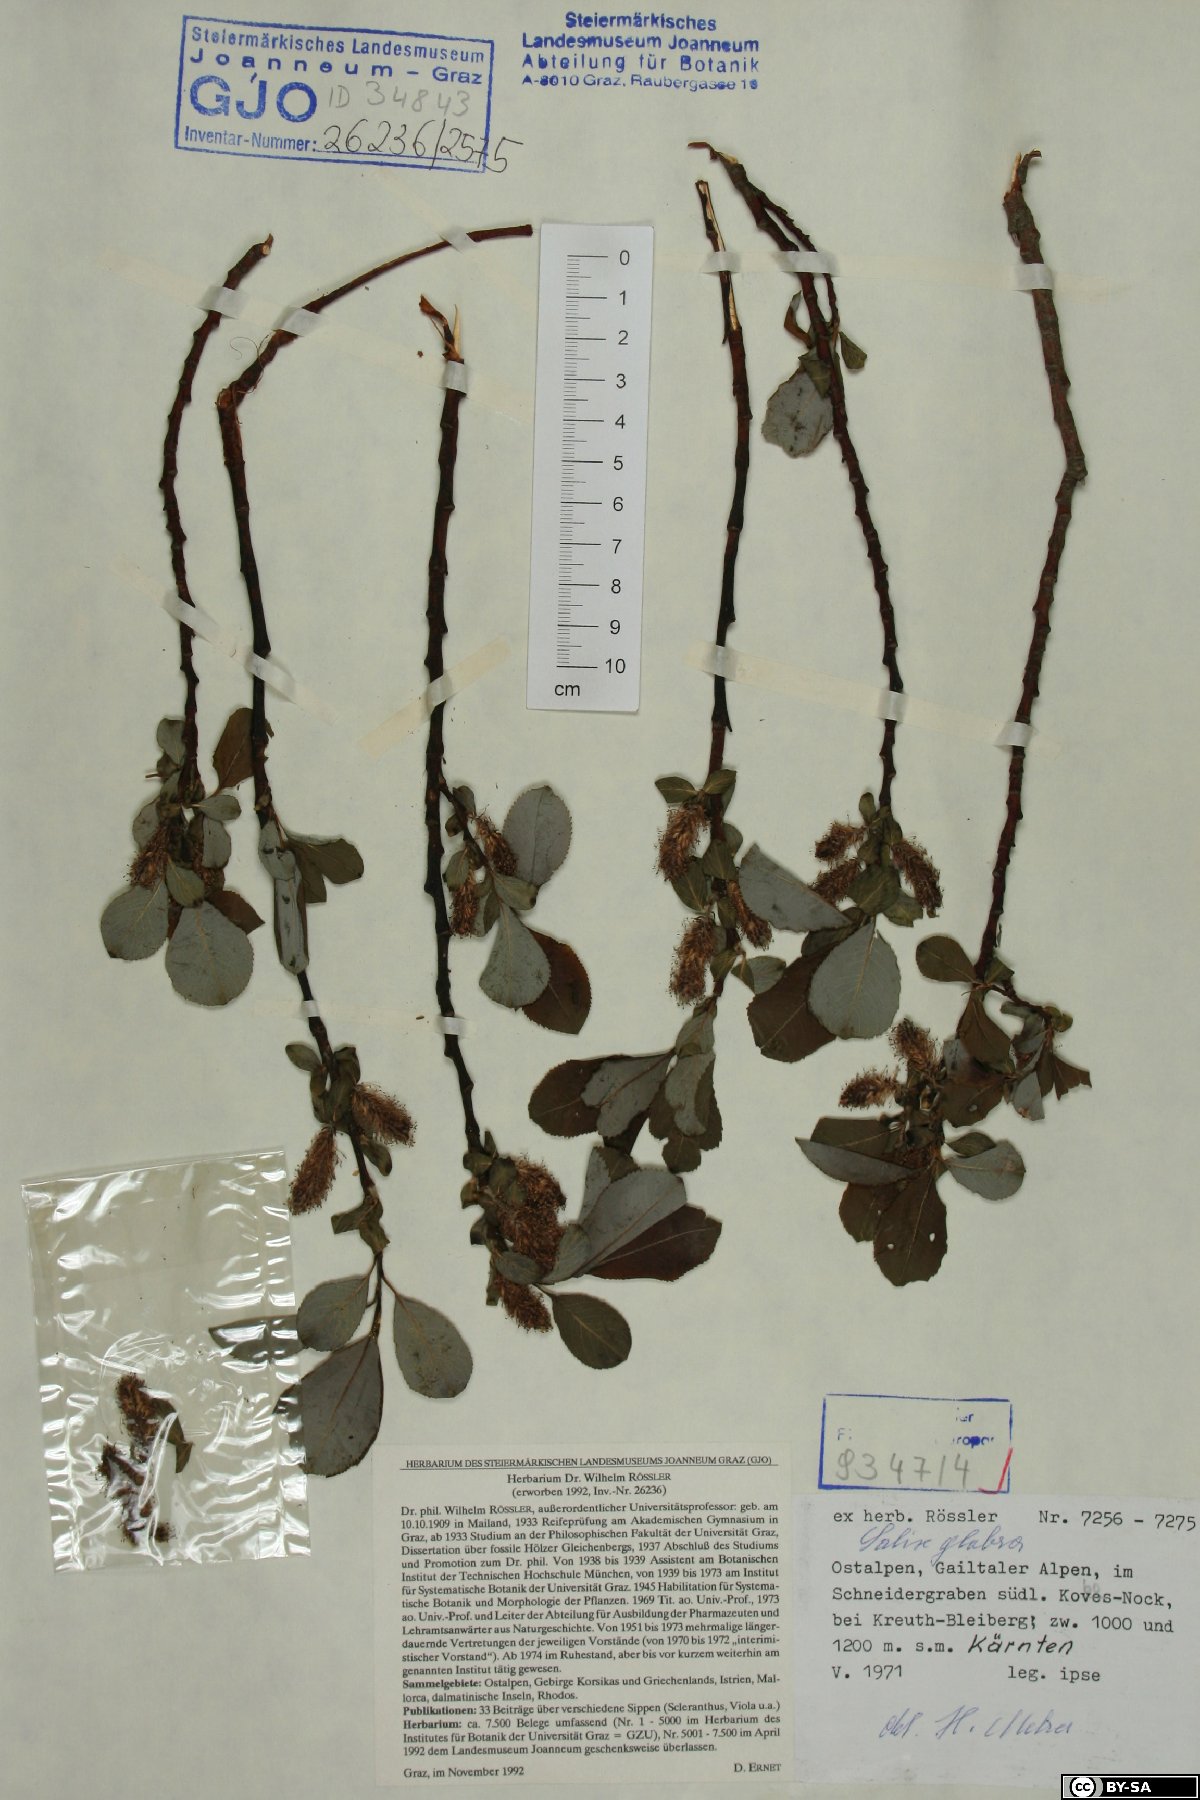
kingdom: Plantae
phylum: Tracheophyta
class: Magnoliopsida
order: Malpighiales
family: Salicaceae
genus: Salix
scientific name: Salix glabra
